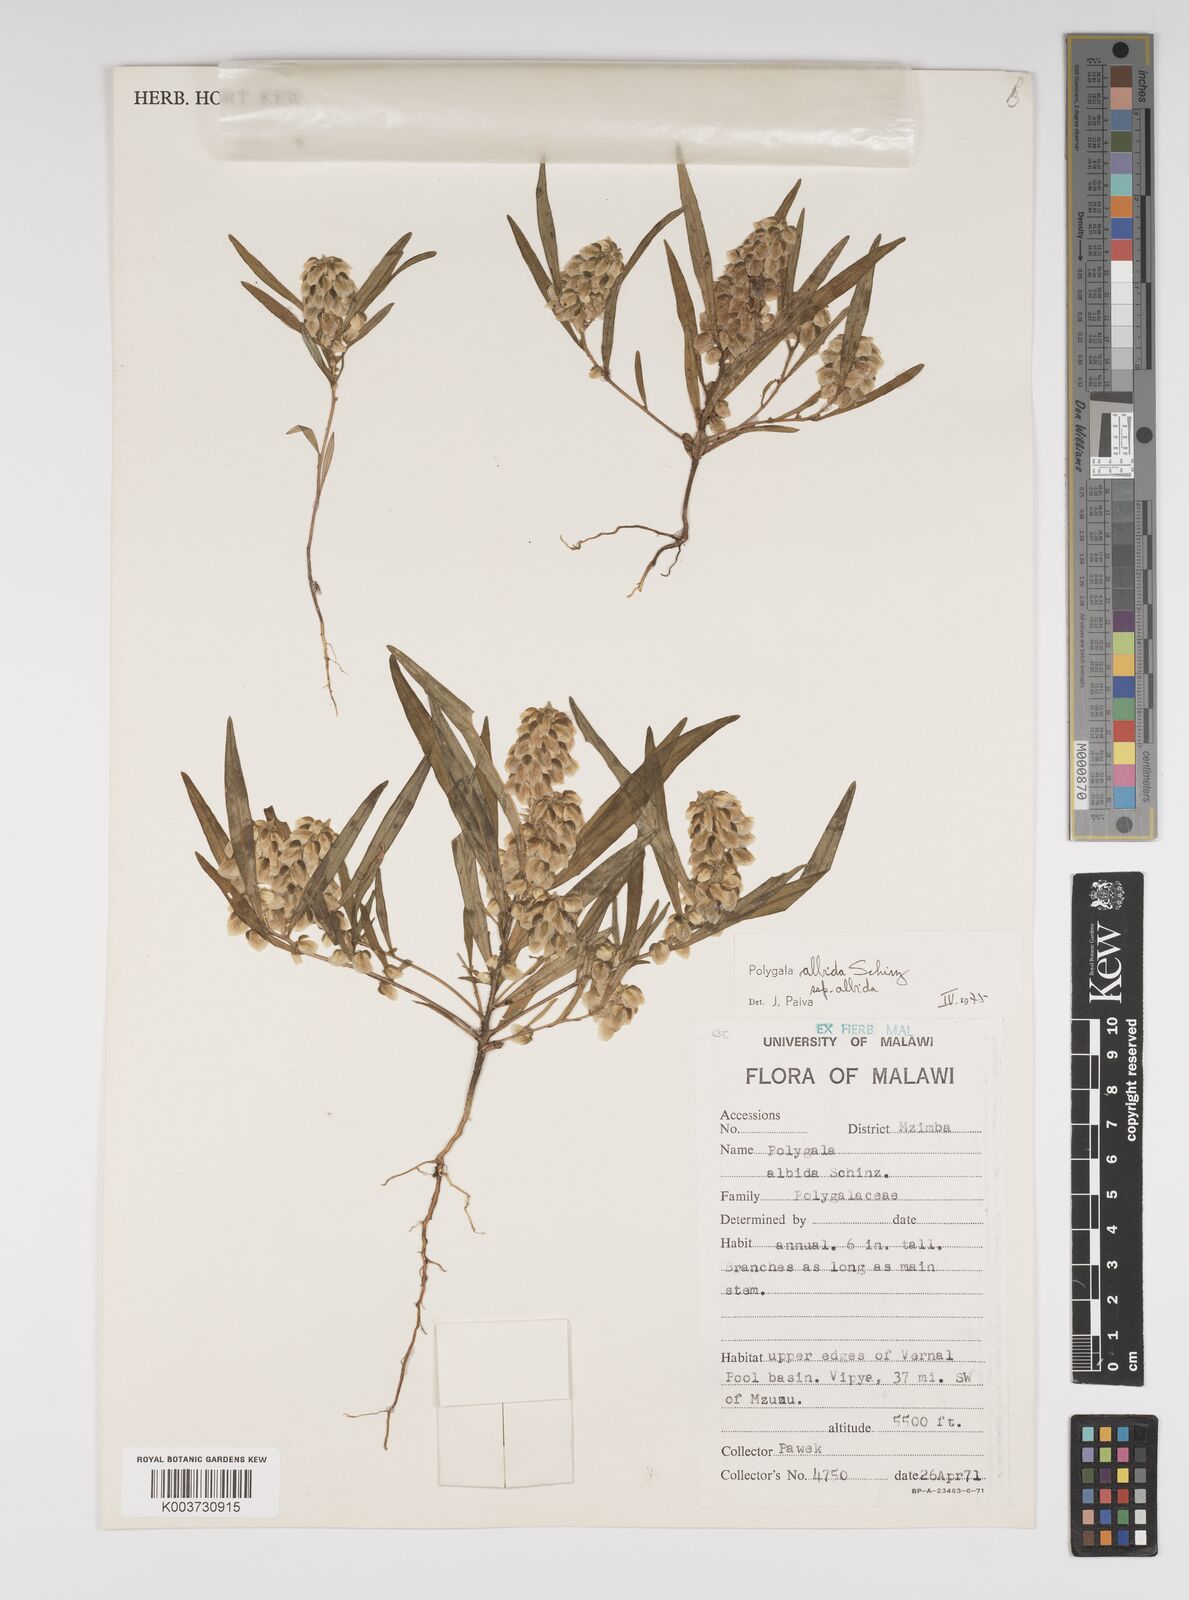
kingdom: Plantae
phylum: Tracheophyta
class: Magnoliopsida
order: Fabales
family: Polygalaceae
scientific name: Polygalaceae
